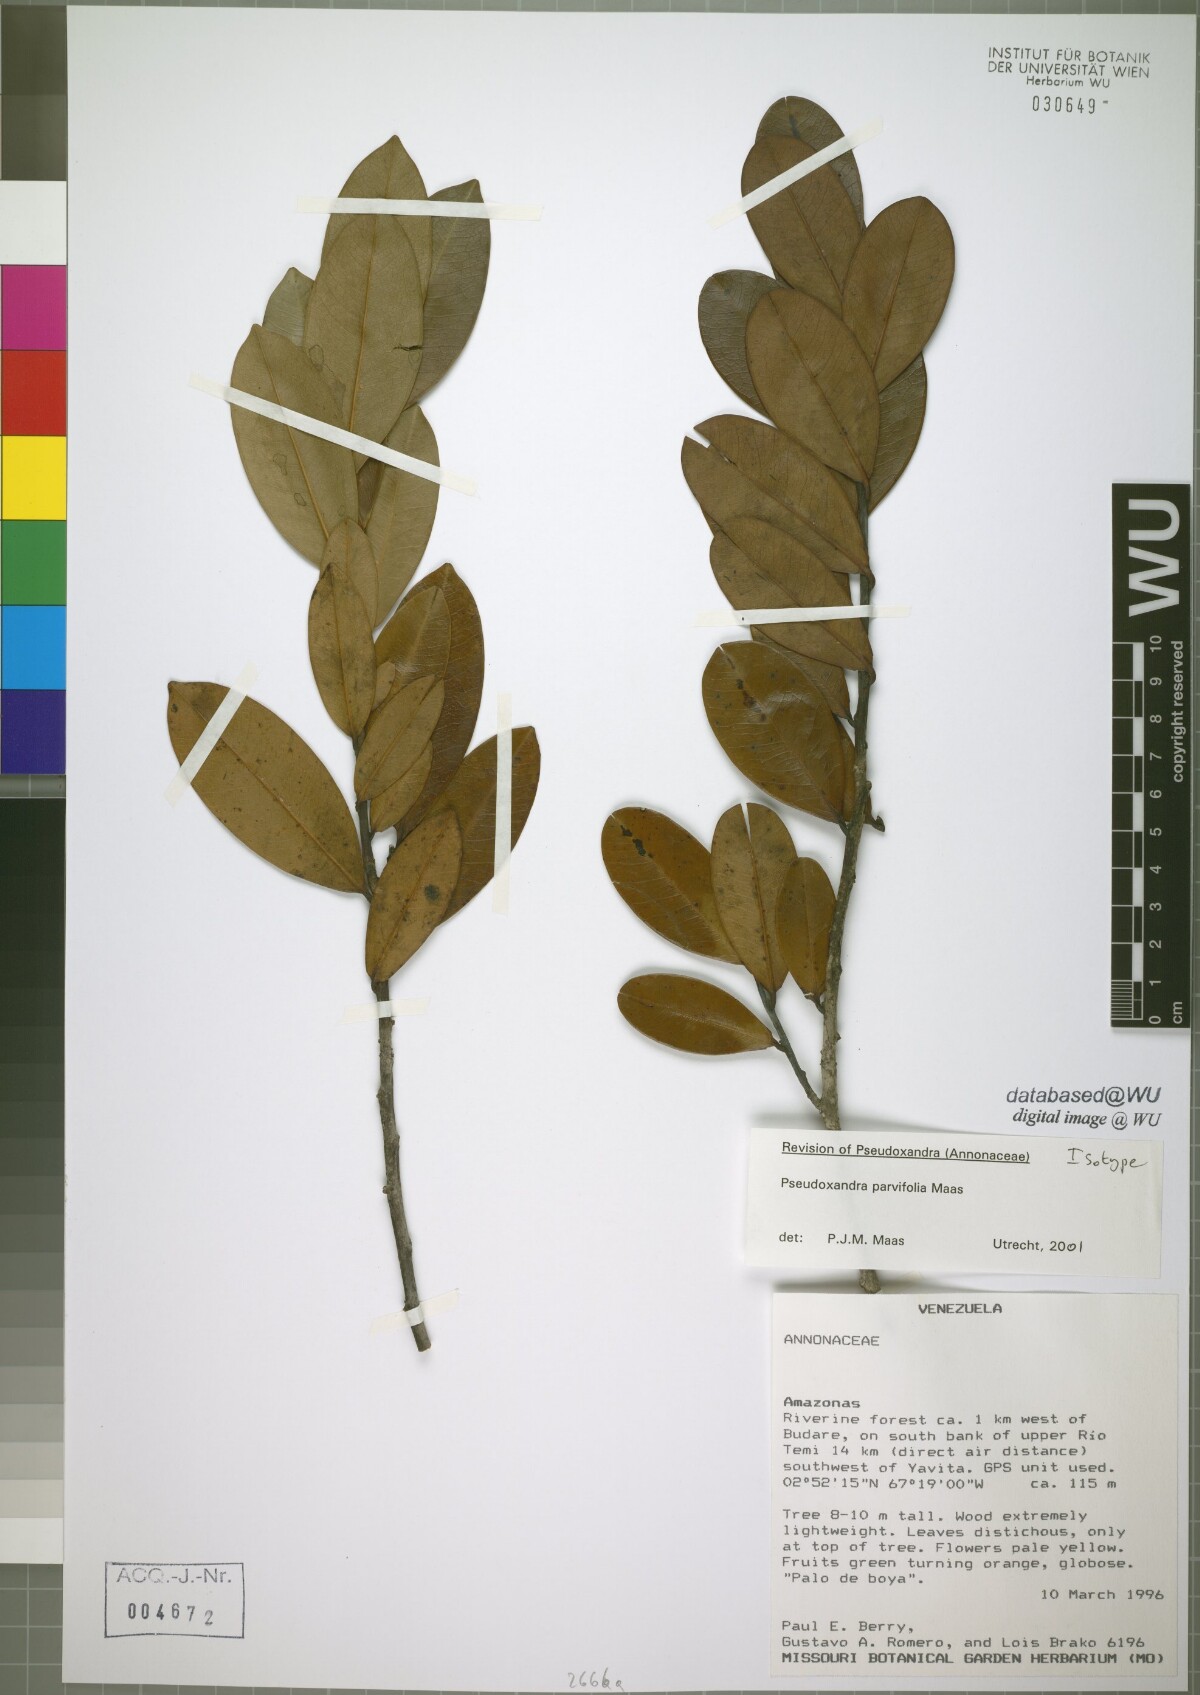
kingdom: Plantae
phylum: Tracheophyta
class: Magnoliopsida
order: Magnoliales
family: Annonaceae
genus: Pseudoxandra
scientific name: Pseudoxandra parvifolia
